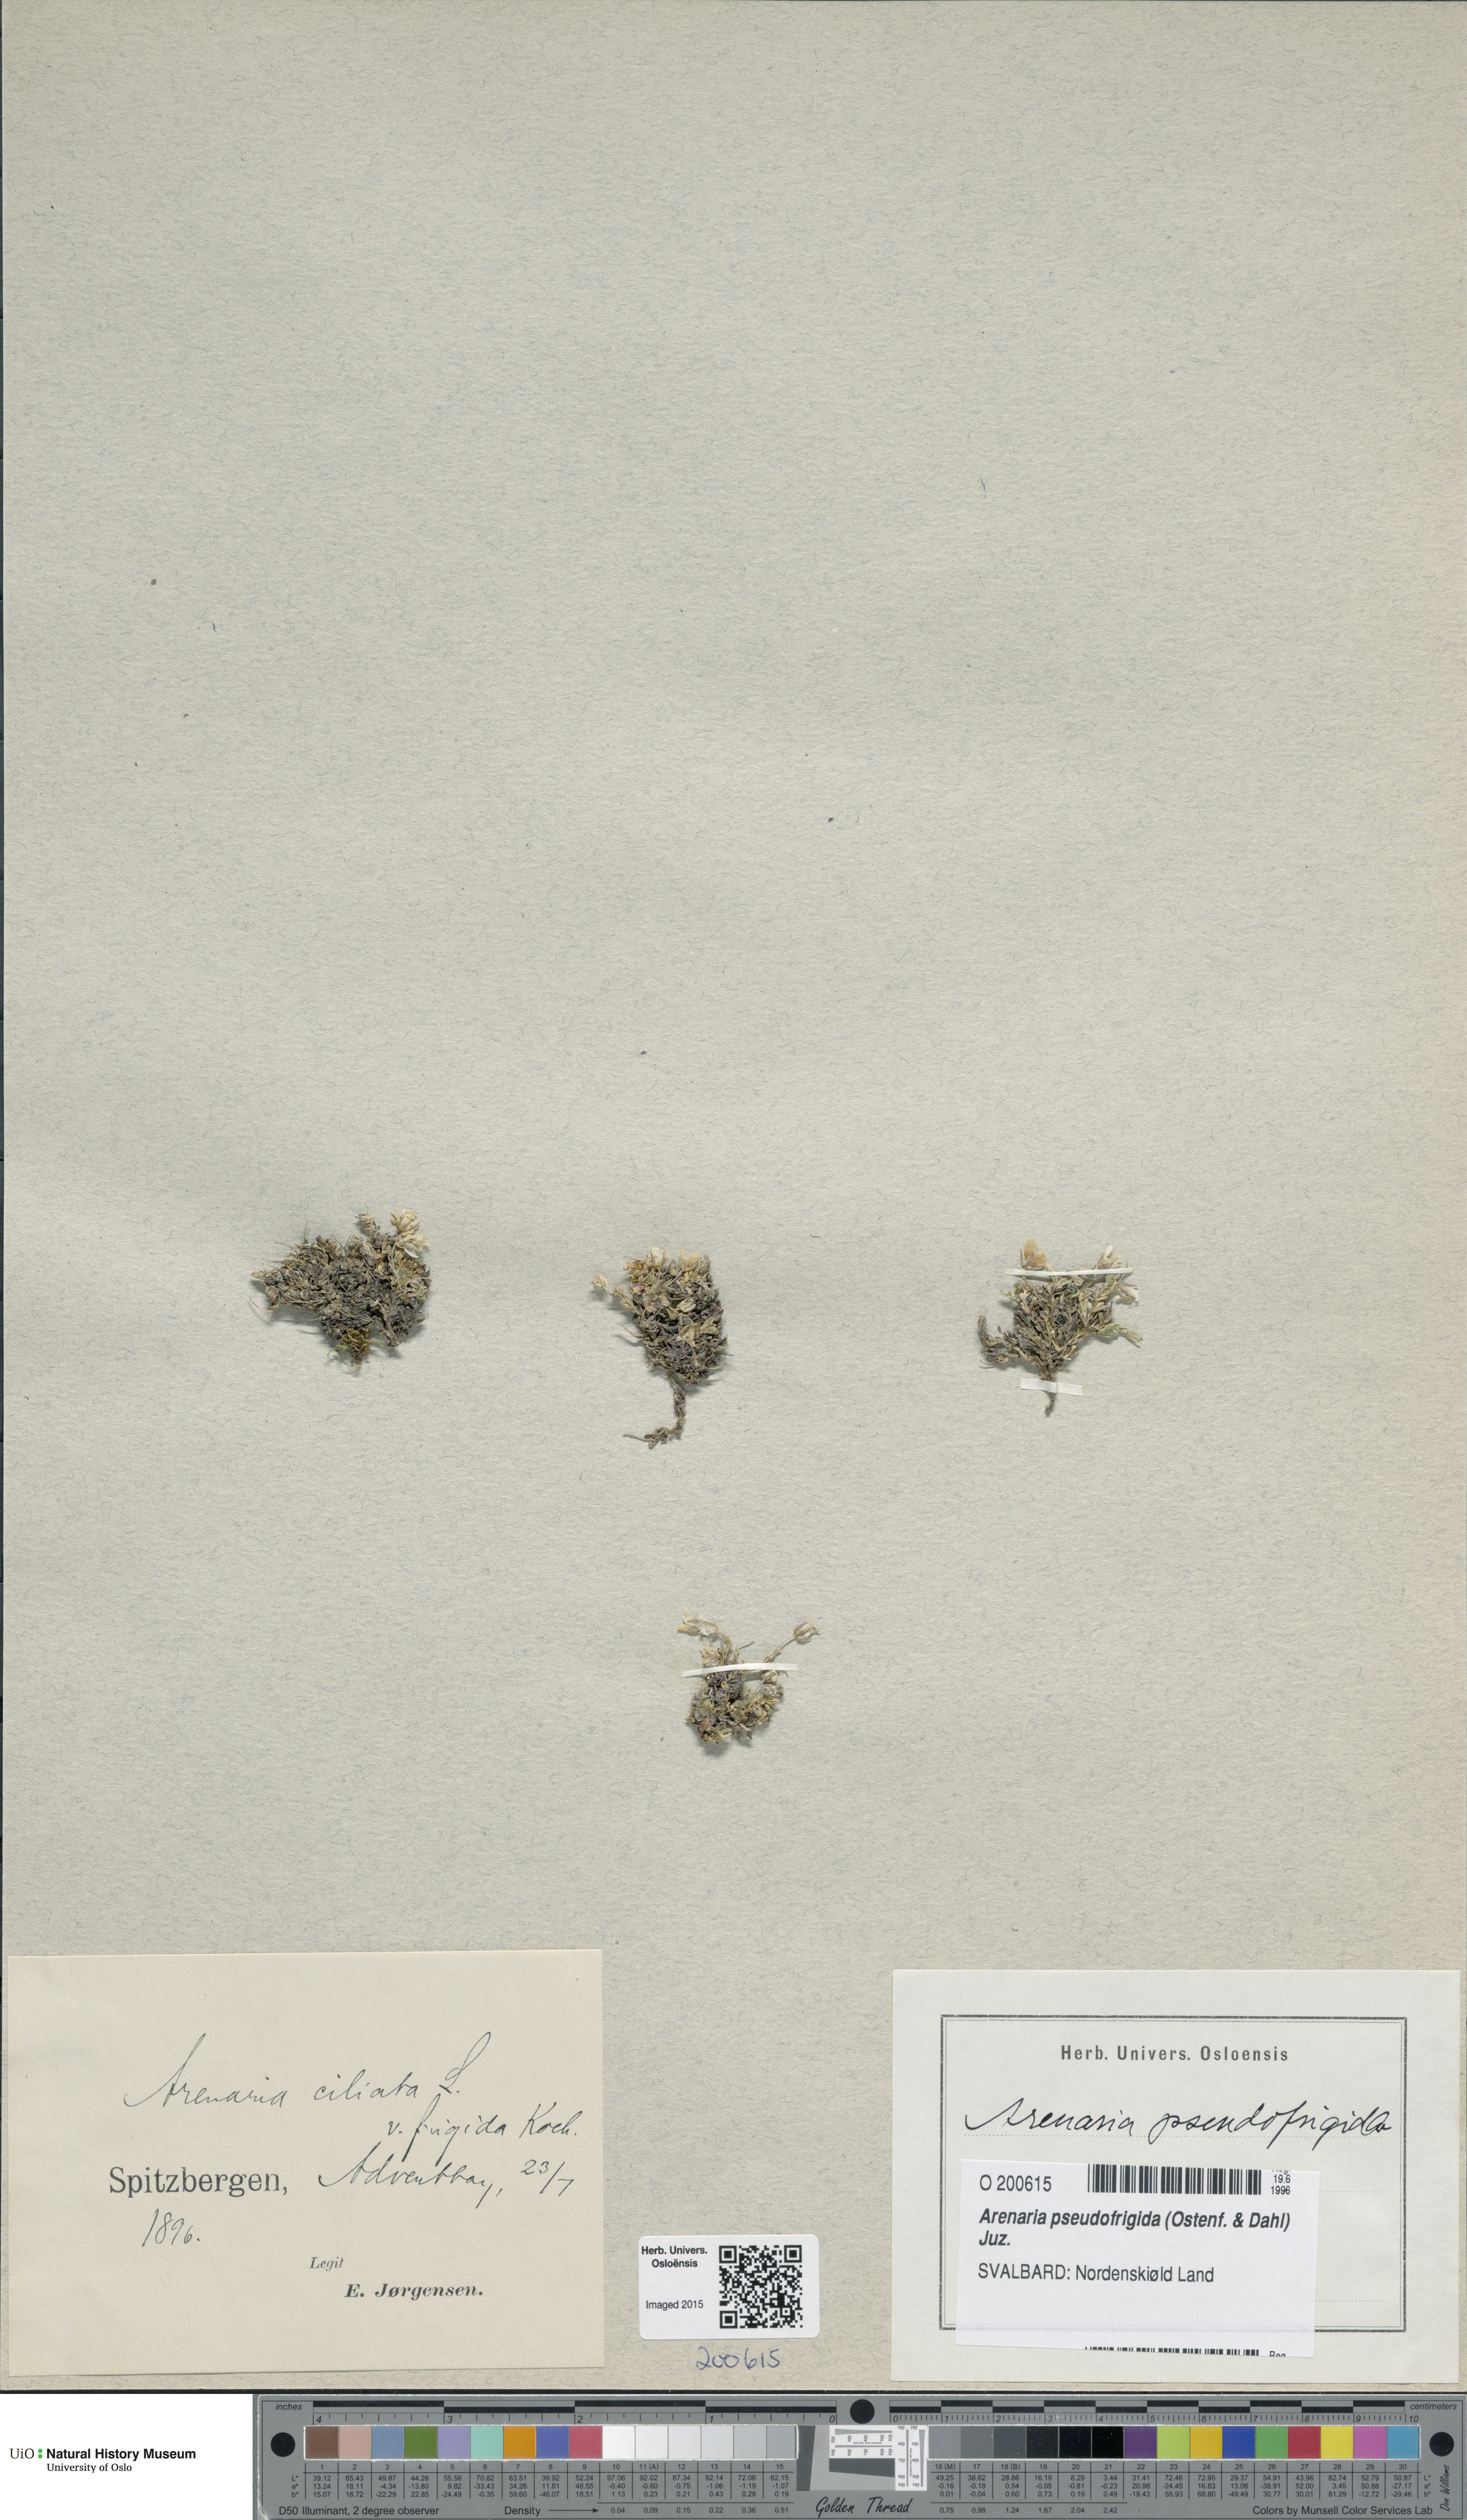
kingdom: Plantae
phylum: Tracheophyta
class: Magnoliopsida
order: Caryophyllales
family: Caryophyllaceae
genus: Arenaria
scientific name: Arenaria pseudofrigida
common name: Tundra sandwort
